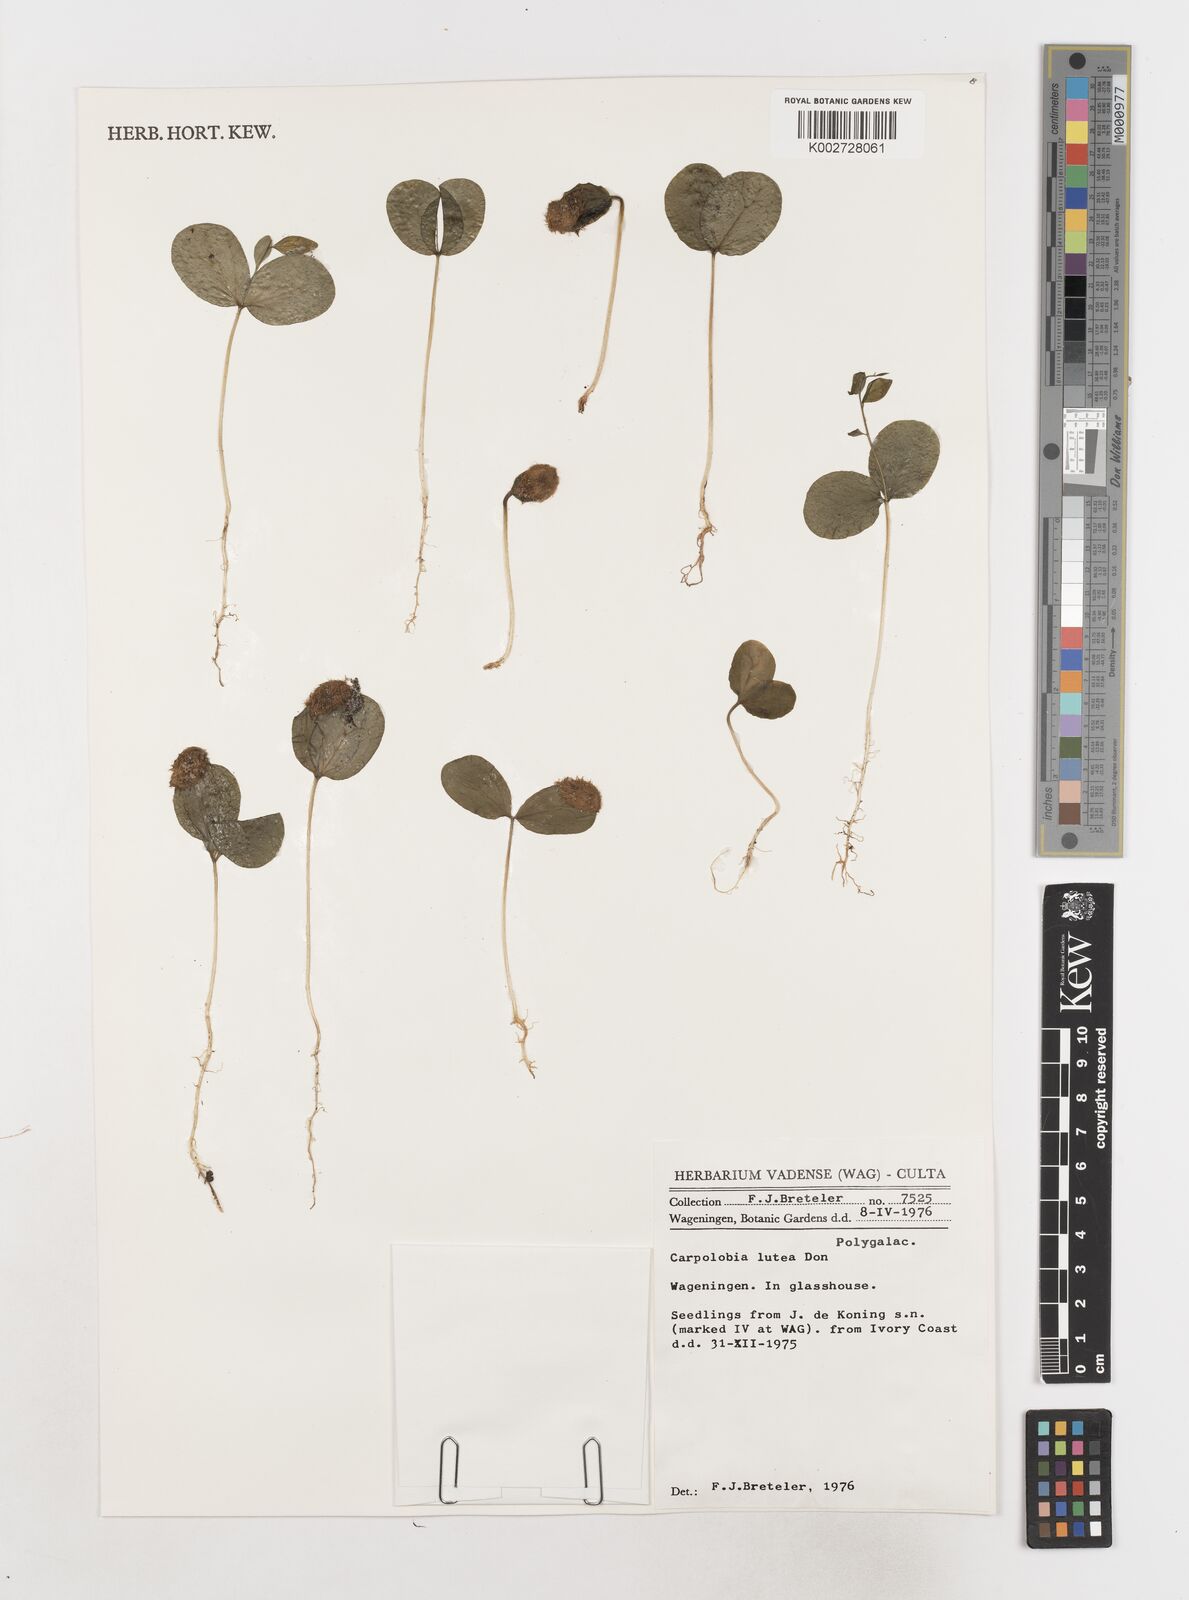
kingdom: Plantae
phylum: Tracheophyta
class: Magnoliopsida
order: Fabales
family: Polygalaceae
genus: Carpolobia
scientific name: Carpolobia lutea
